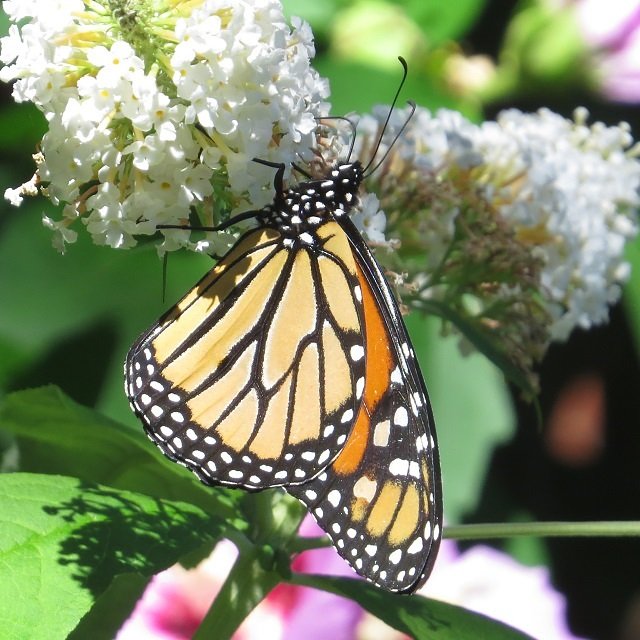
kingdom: Animalia
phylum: Arthropoda
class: Insecta
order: Lepidoptera
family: Nymphalidae
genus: Danaus
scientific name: Danaus plexippus
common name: Monarch
